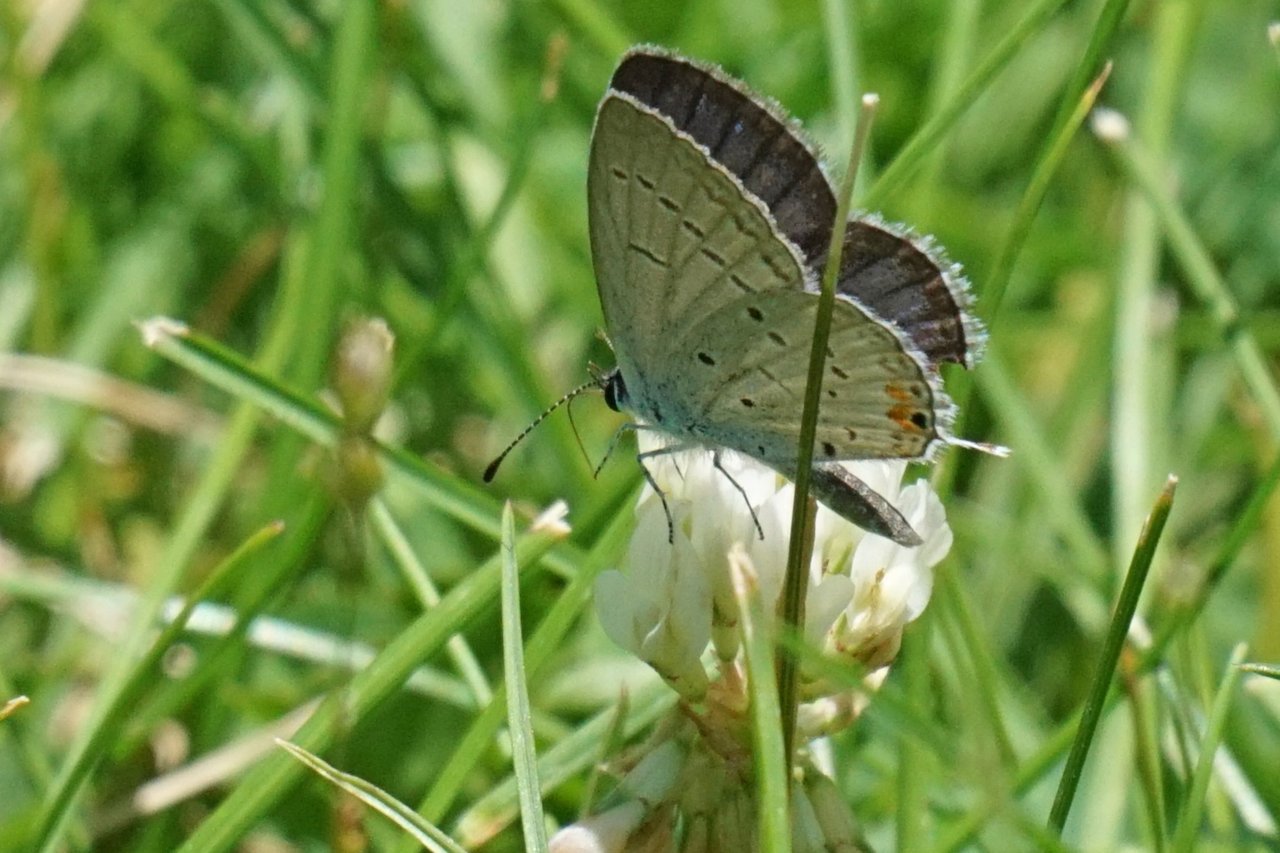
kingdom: Animalia
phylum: Arthropoda
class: Insecta
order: Lepidoptera
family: Lycaenidae
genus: Elkalyce
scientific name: Elkalyce comyntas
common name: Eastern Tailed-Blue
